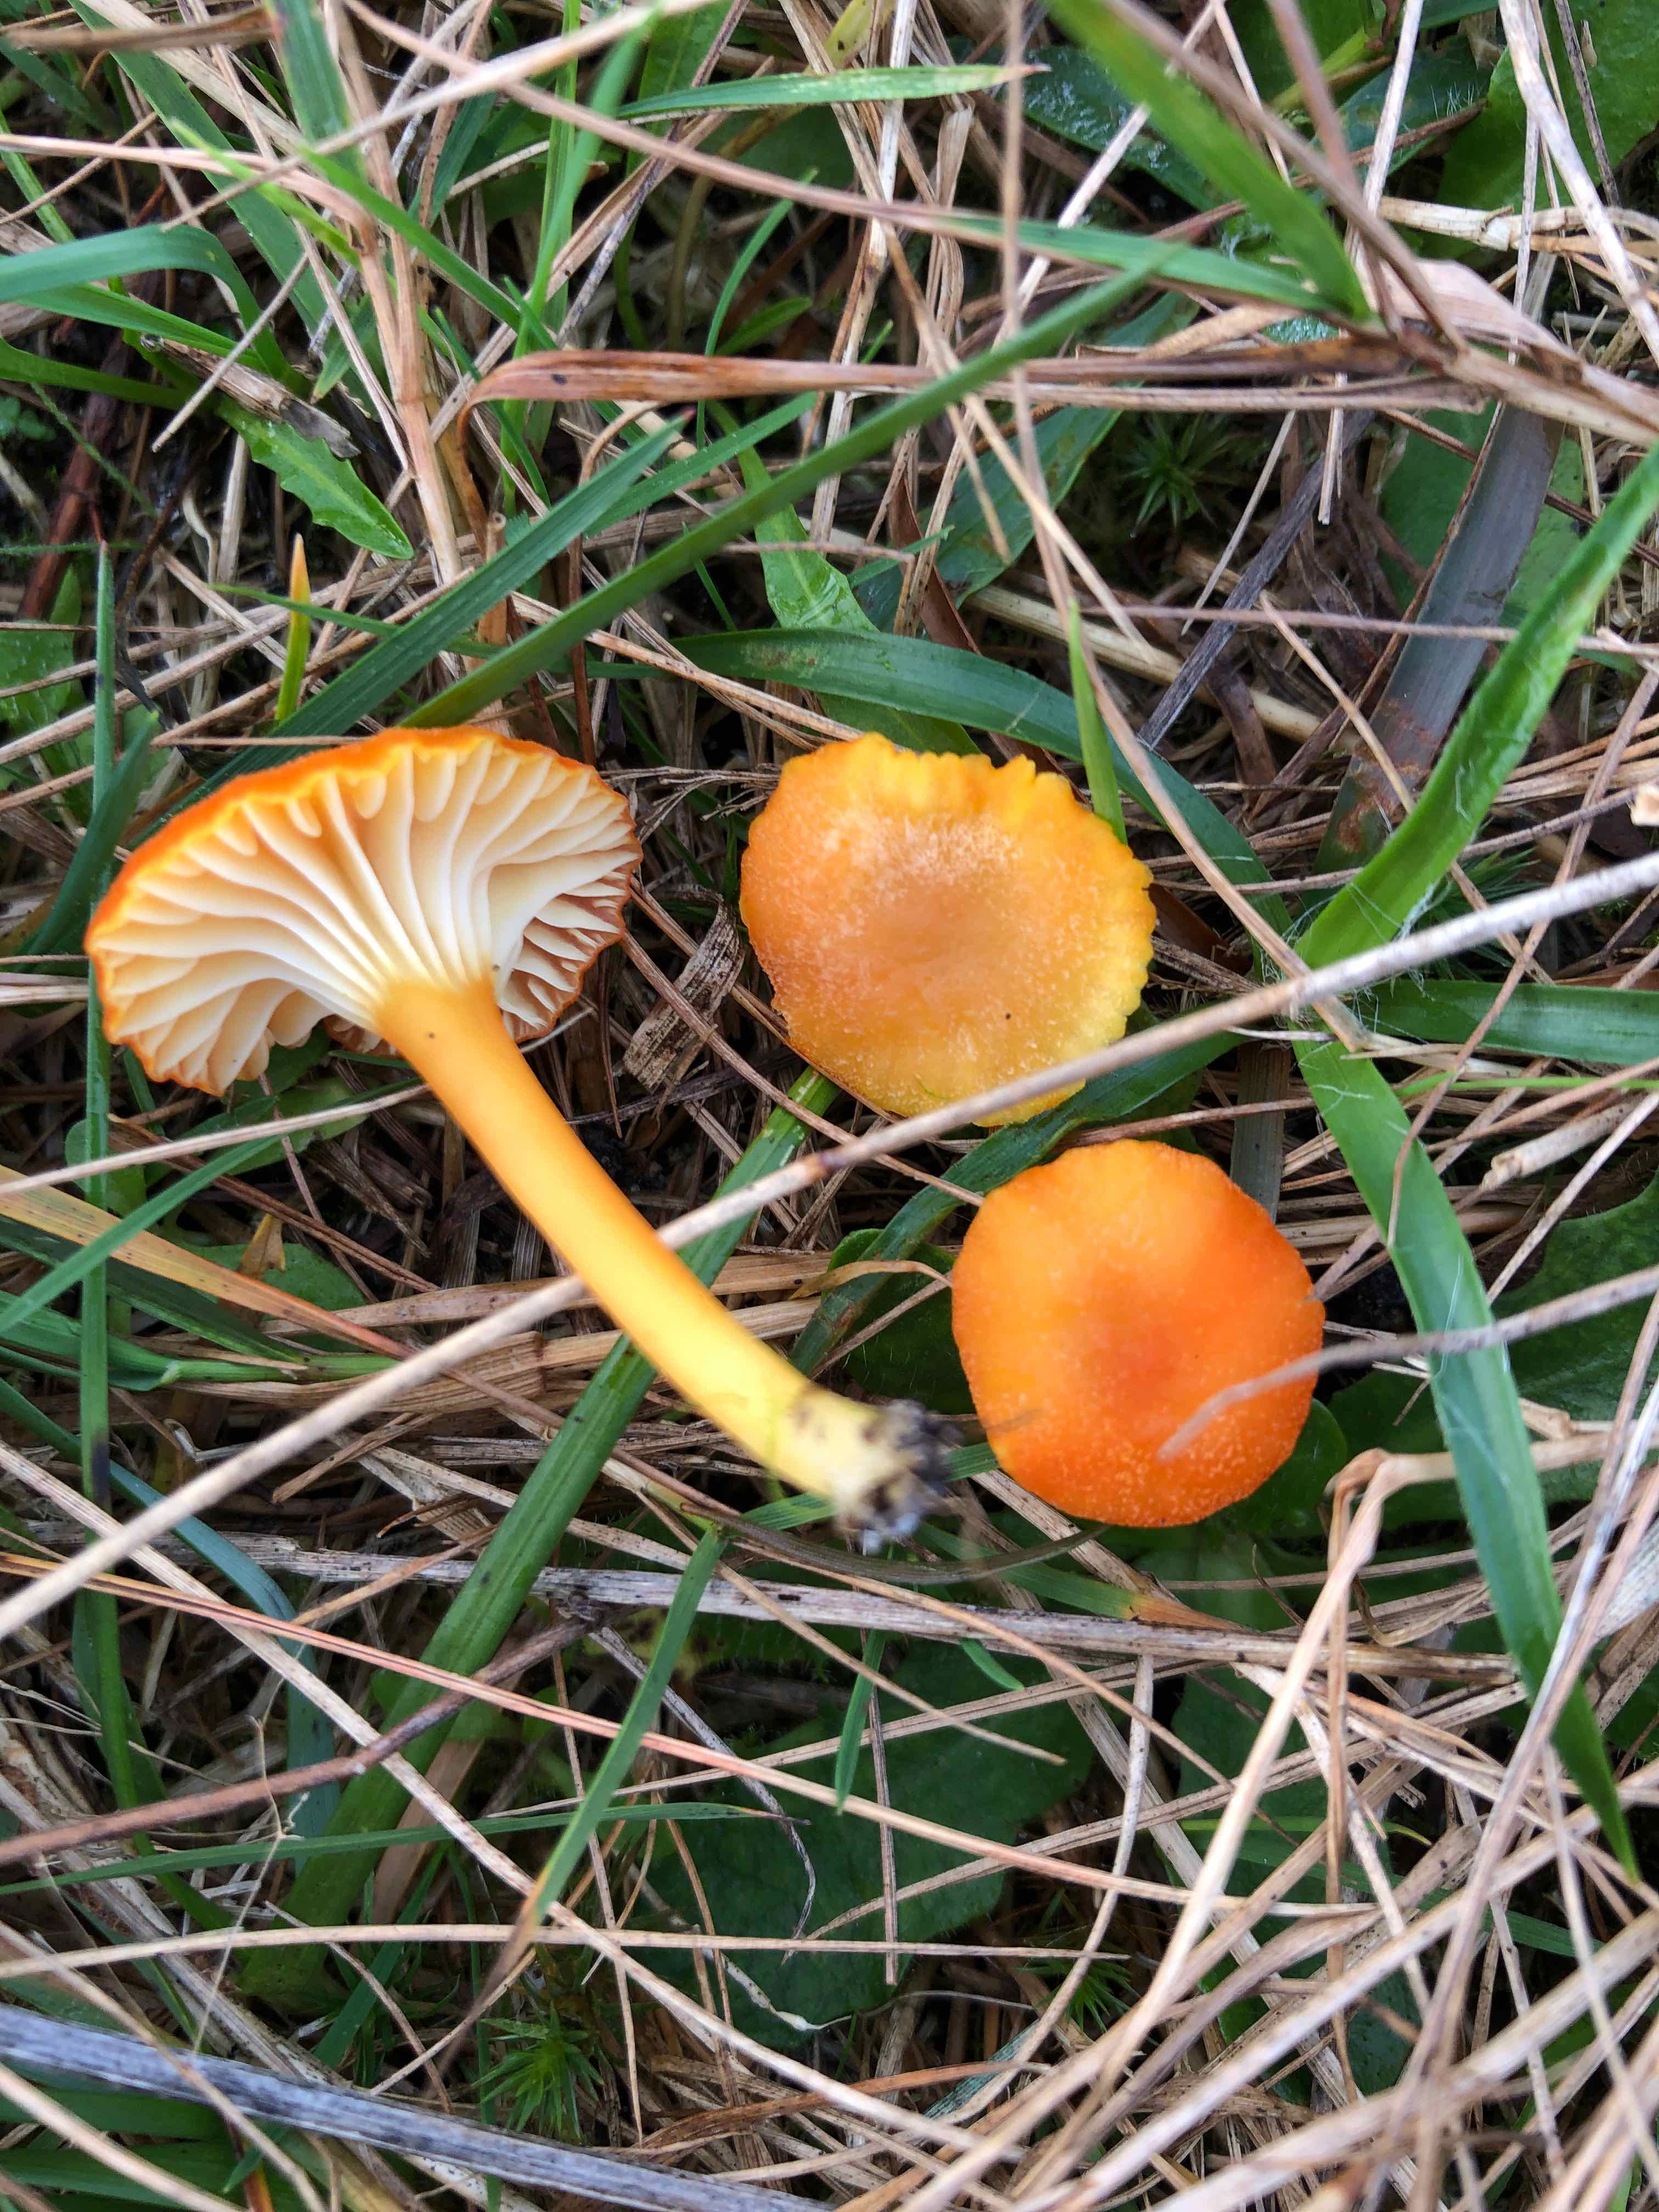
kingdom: Fungi
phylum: Basidiomycota
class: Agaricomycetes
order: Agaricales
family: Hygrophoraceae
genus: Hygrocybe
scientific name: Hygrocybe cantharellus
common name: kantarel-vokshat
